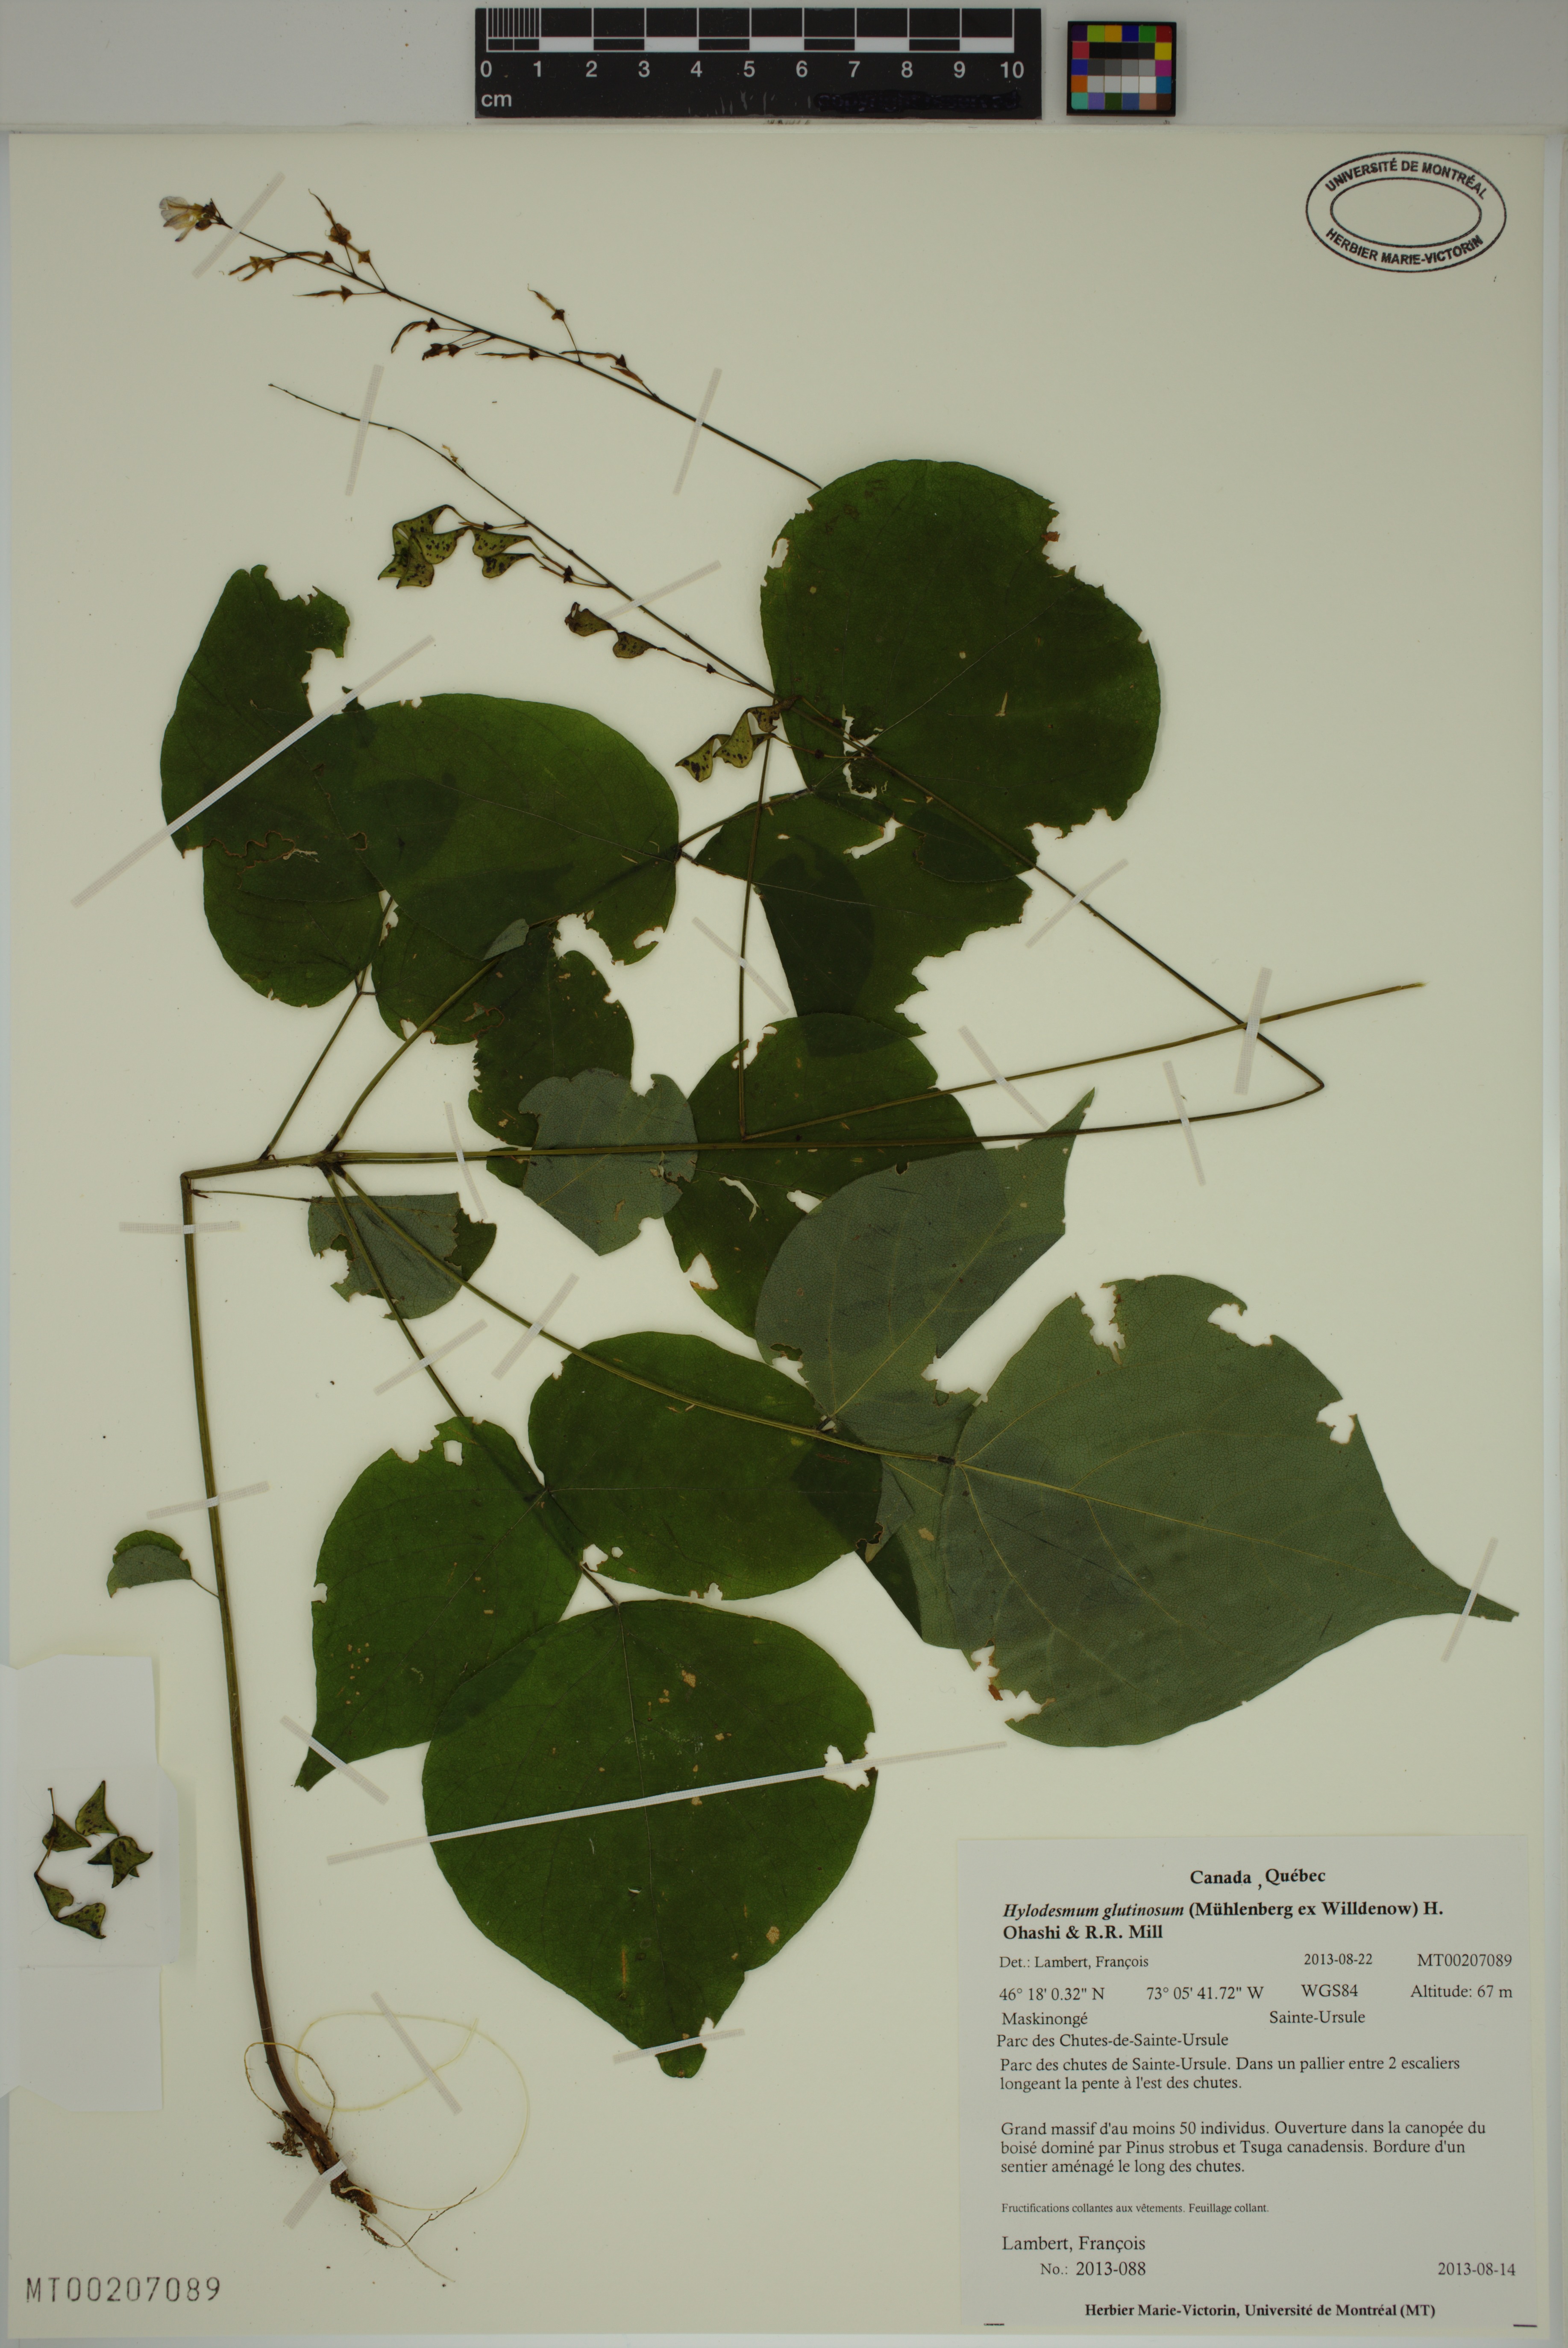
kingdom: Plantae
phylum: Tracheophyta
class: Magnoliopsida
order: Fabales
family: Fabaceae
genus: Hylodesmum
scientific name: Hylodesmum glutinosum
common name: Clustered-leaved tick-trefoil
